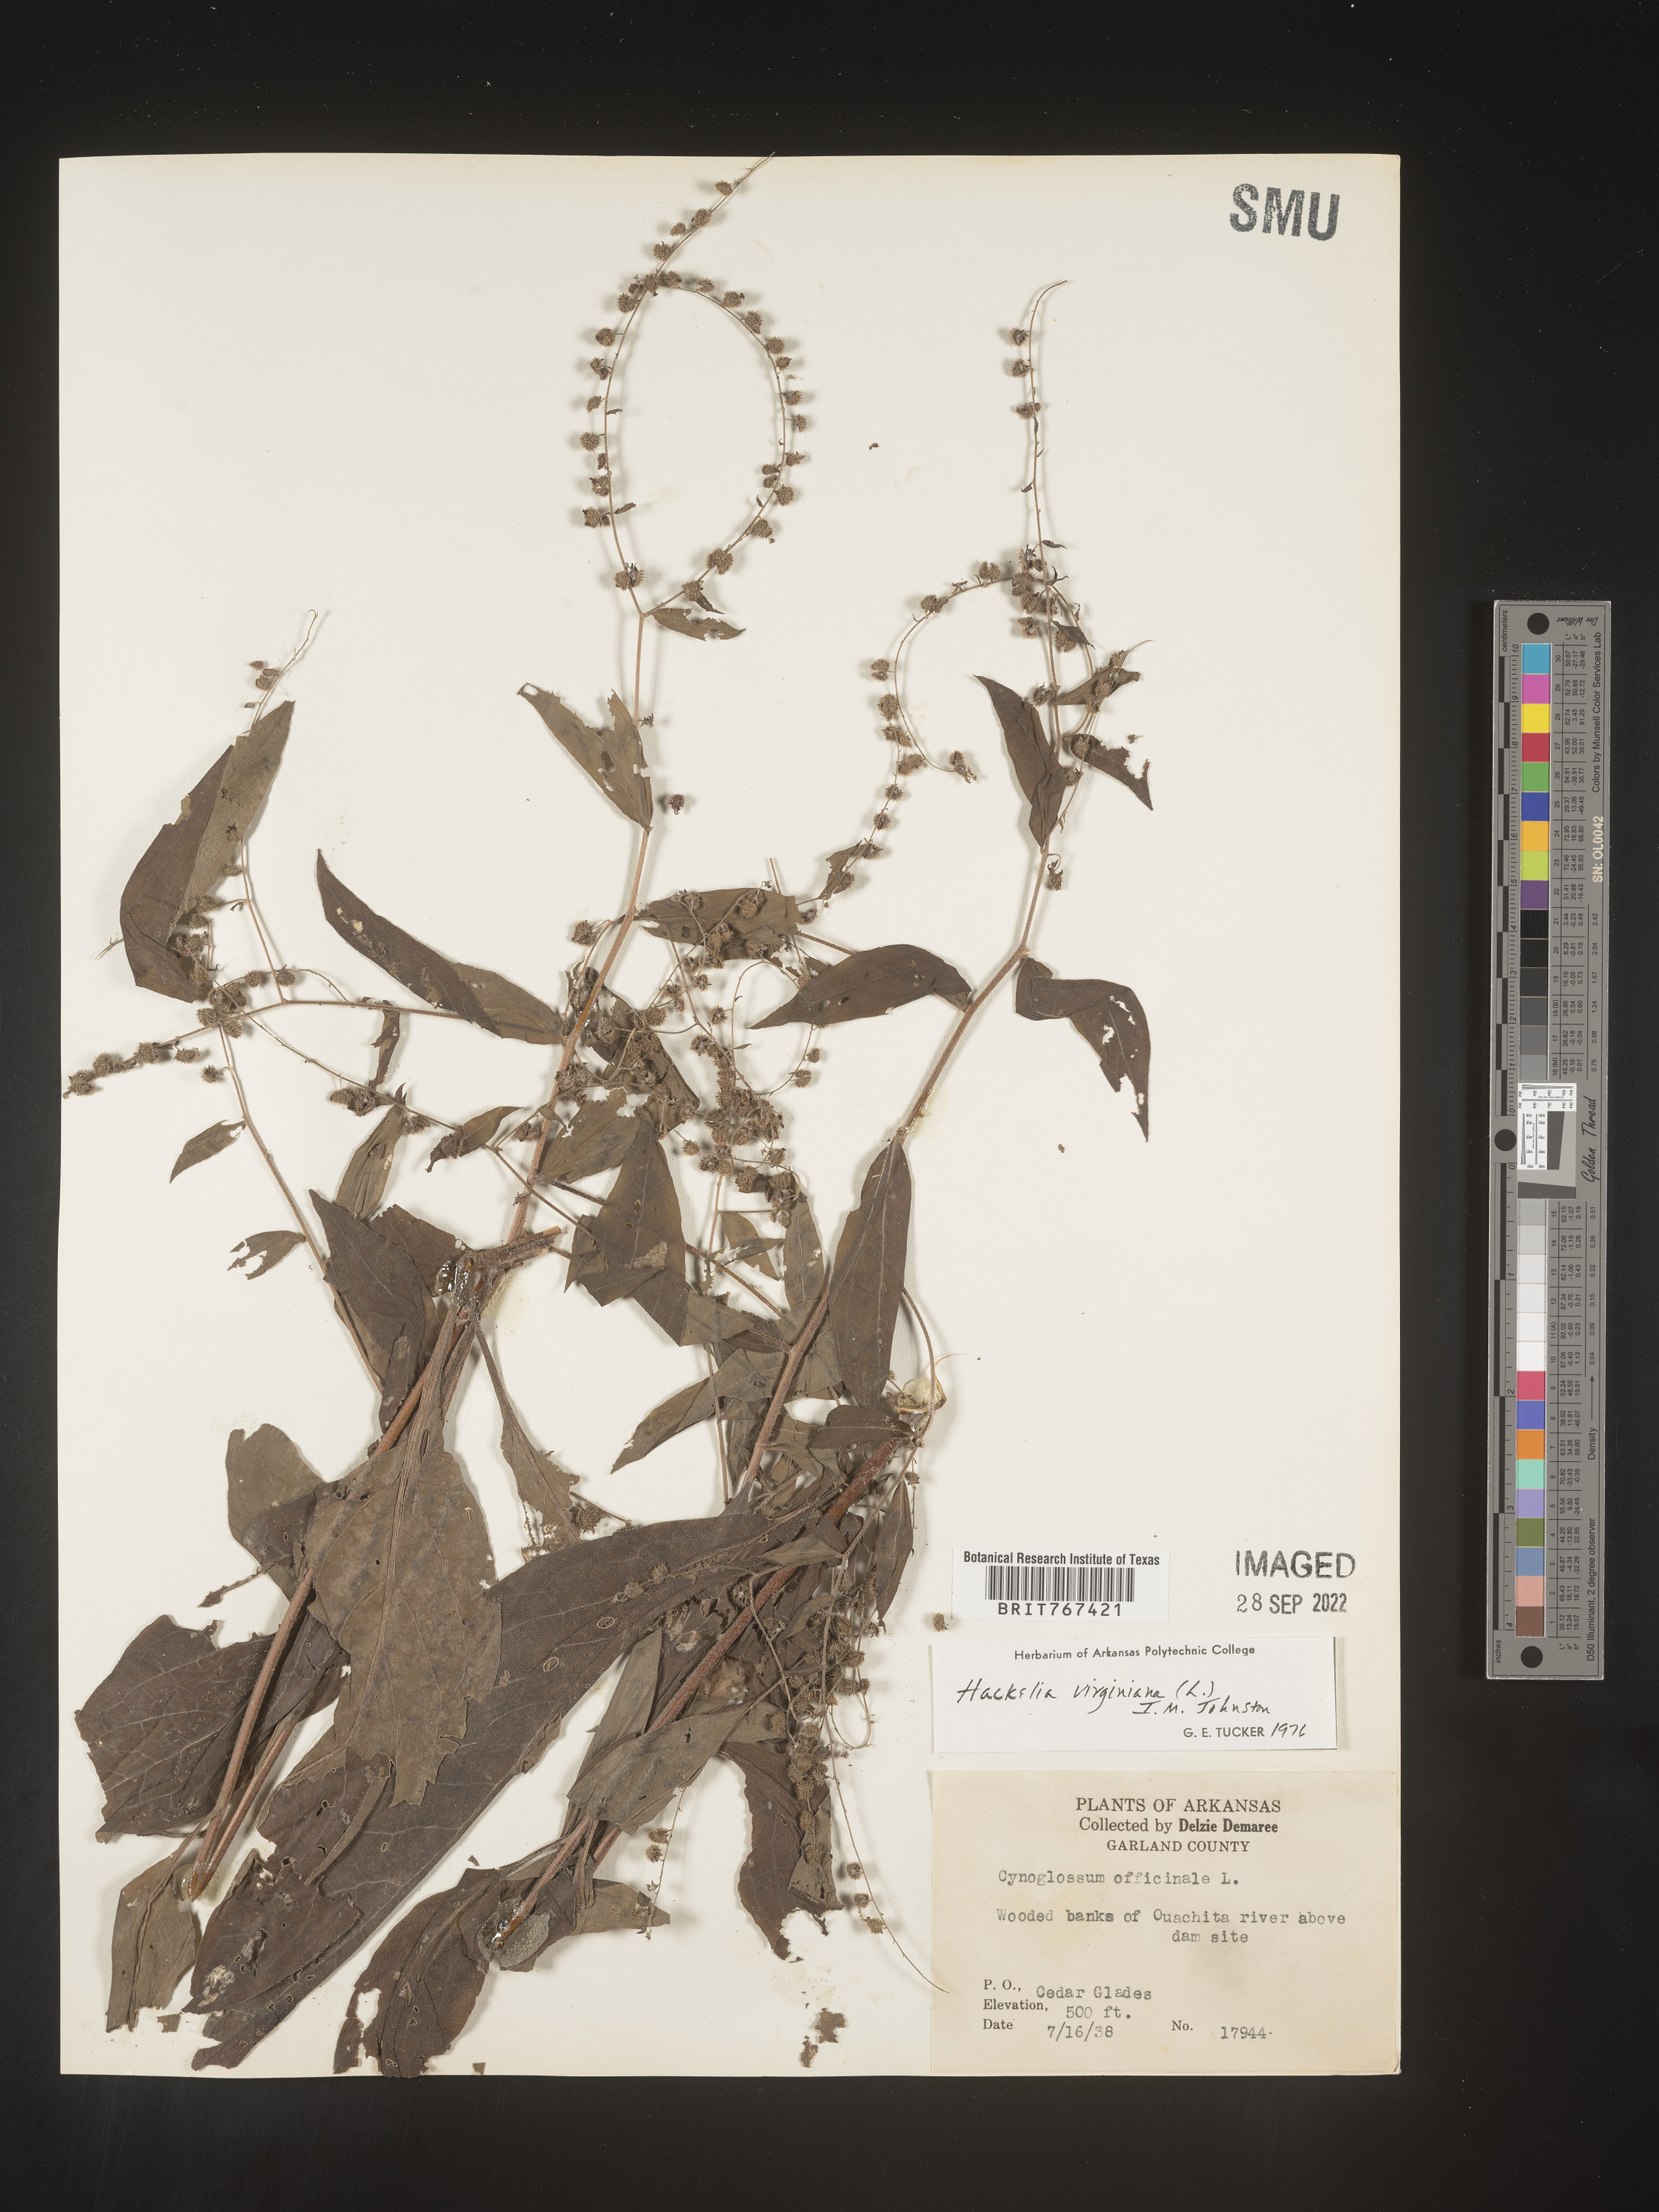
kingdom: Plantae
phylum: Tracheophyta
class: Magnoliopsida
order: Boraginales
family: Boraginaceae
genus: Hackelia
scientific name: Hackelia virginiana
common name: Beggar's-lice
